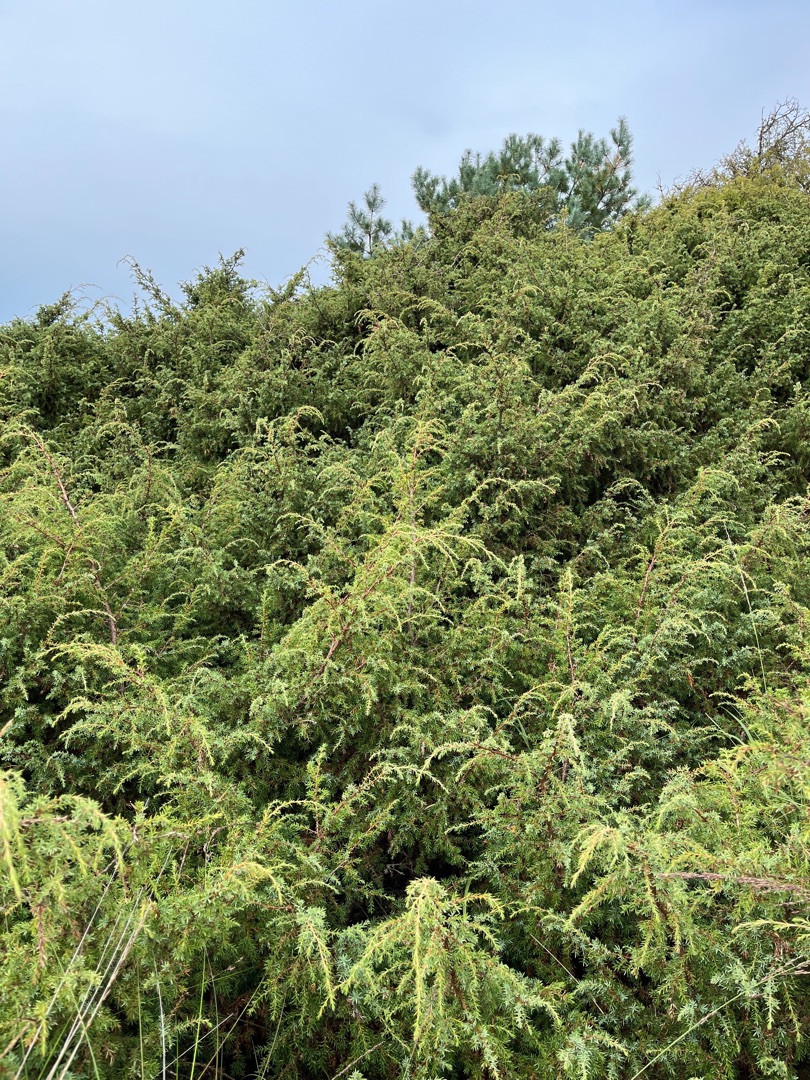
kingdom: Plantae
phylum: Tracheophyta
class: Pinopsida
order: Pinales
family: Cupressaceae
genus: Juniperus
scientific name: Juniperus communis
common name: Almindelig ene
